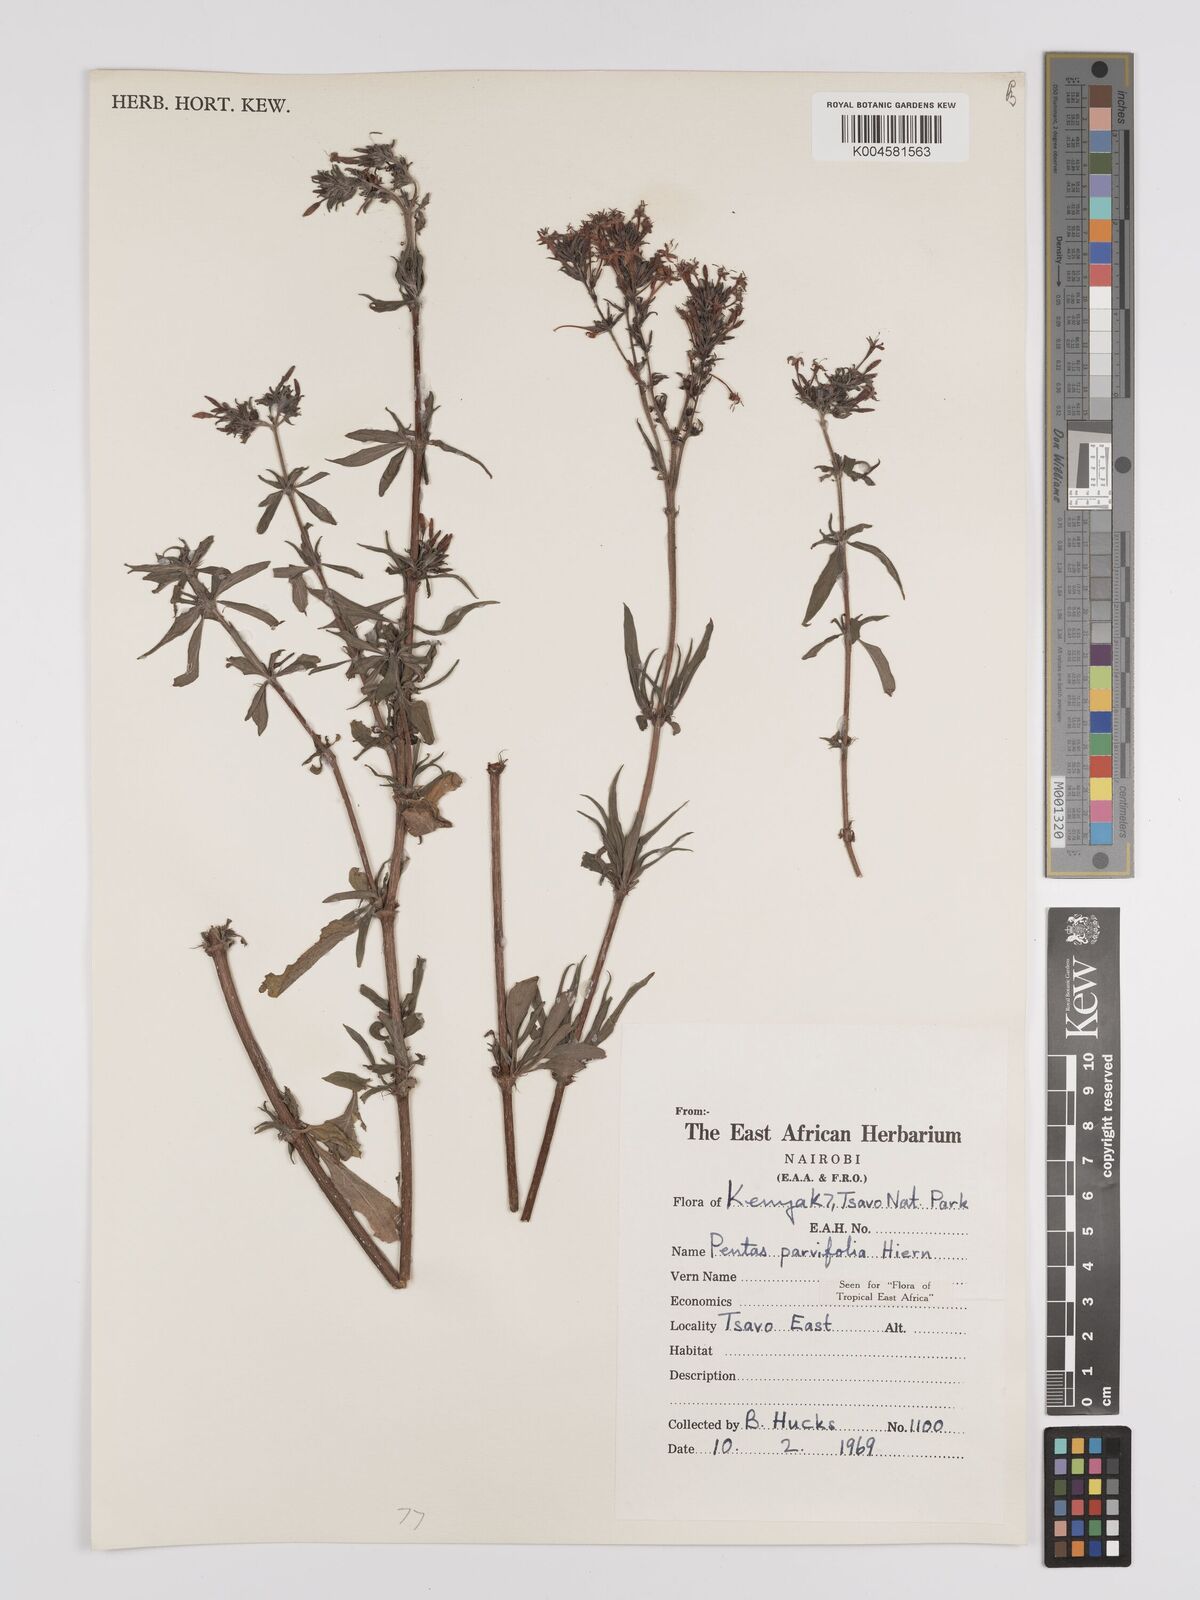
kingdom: Plantae
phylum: Tracheophyta
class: Magnoliopsida
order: Gentianales
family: Rubiaceae
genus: Rhodopentas
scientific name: Rhodopentas parvifolia
